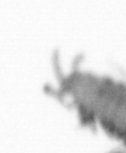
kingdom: Animalia
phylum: Annelida
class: Polychaeta
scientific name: Polychaeta
